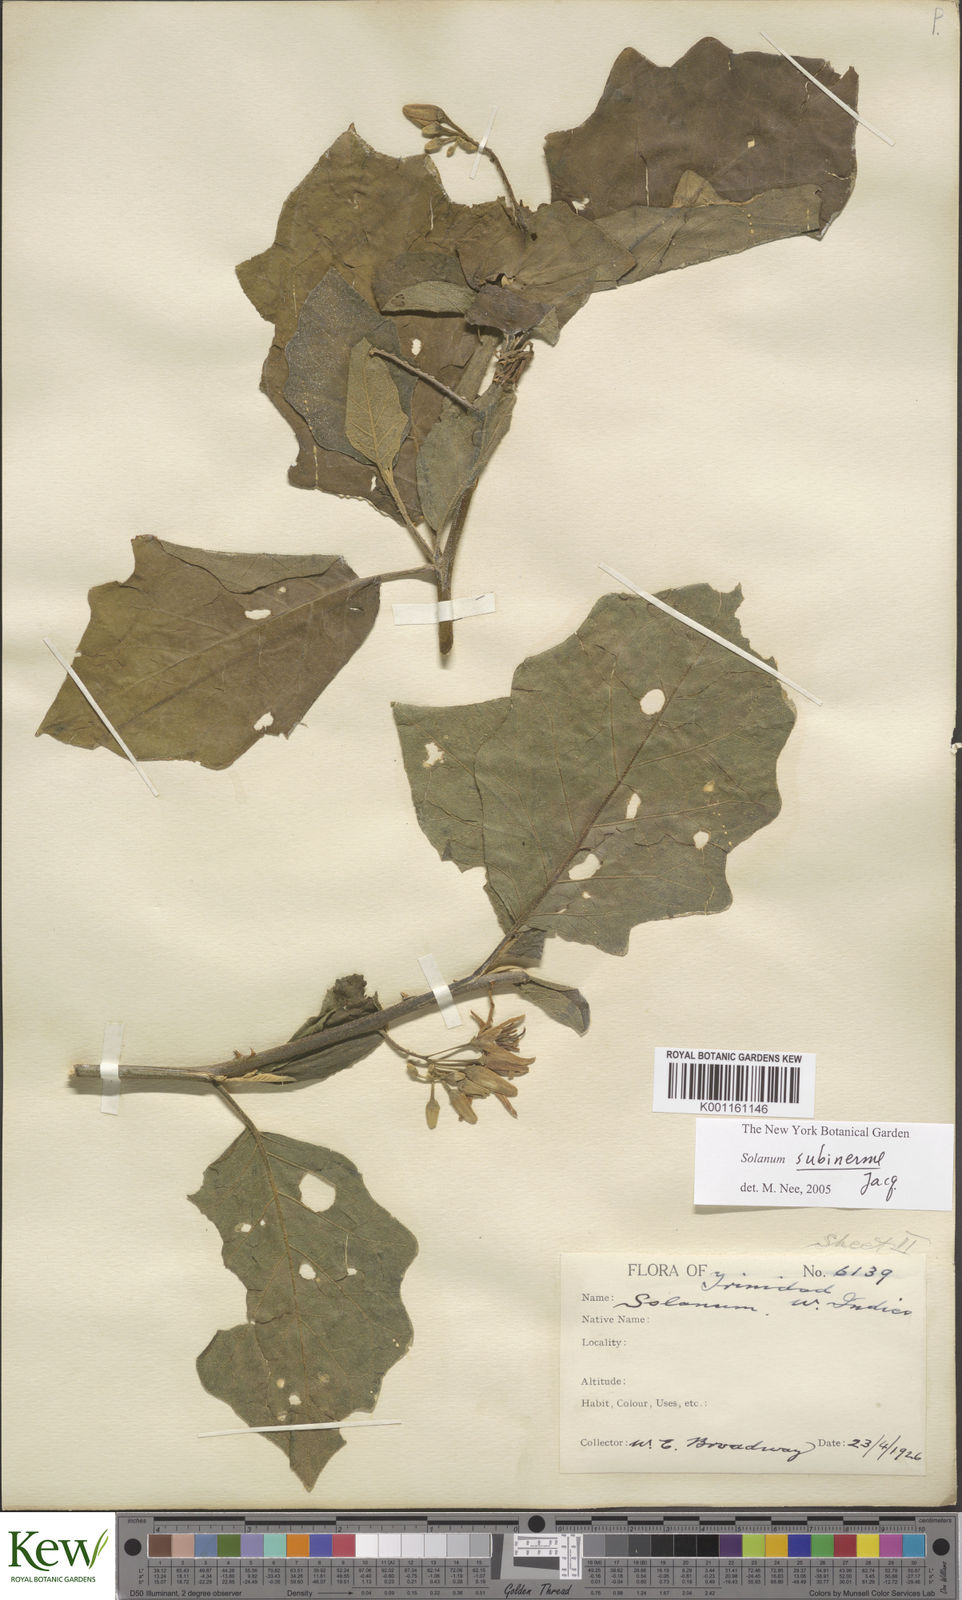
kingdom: Plantae
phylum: Tracheophyta
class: Magnoliopsida
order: Solanales
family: Solanaceae
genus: Solanum
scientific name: Solanum subinerme
